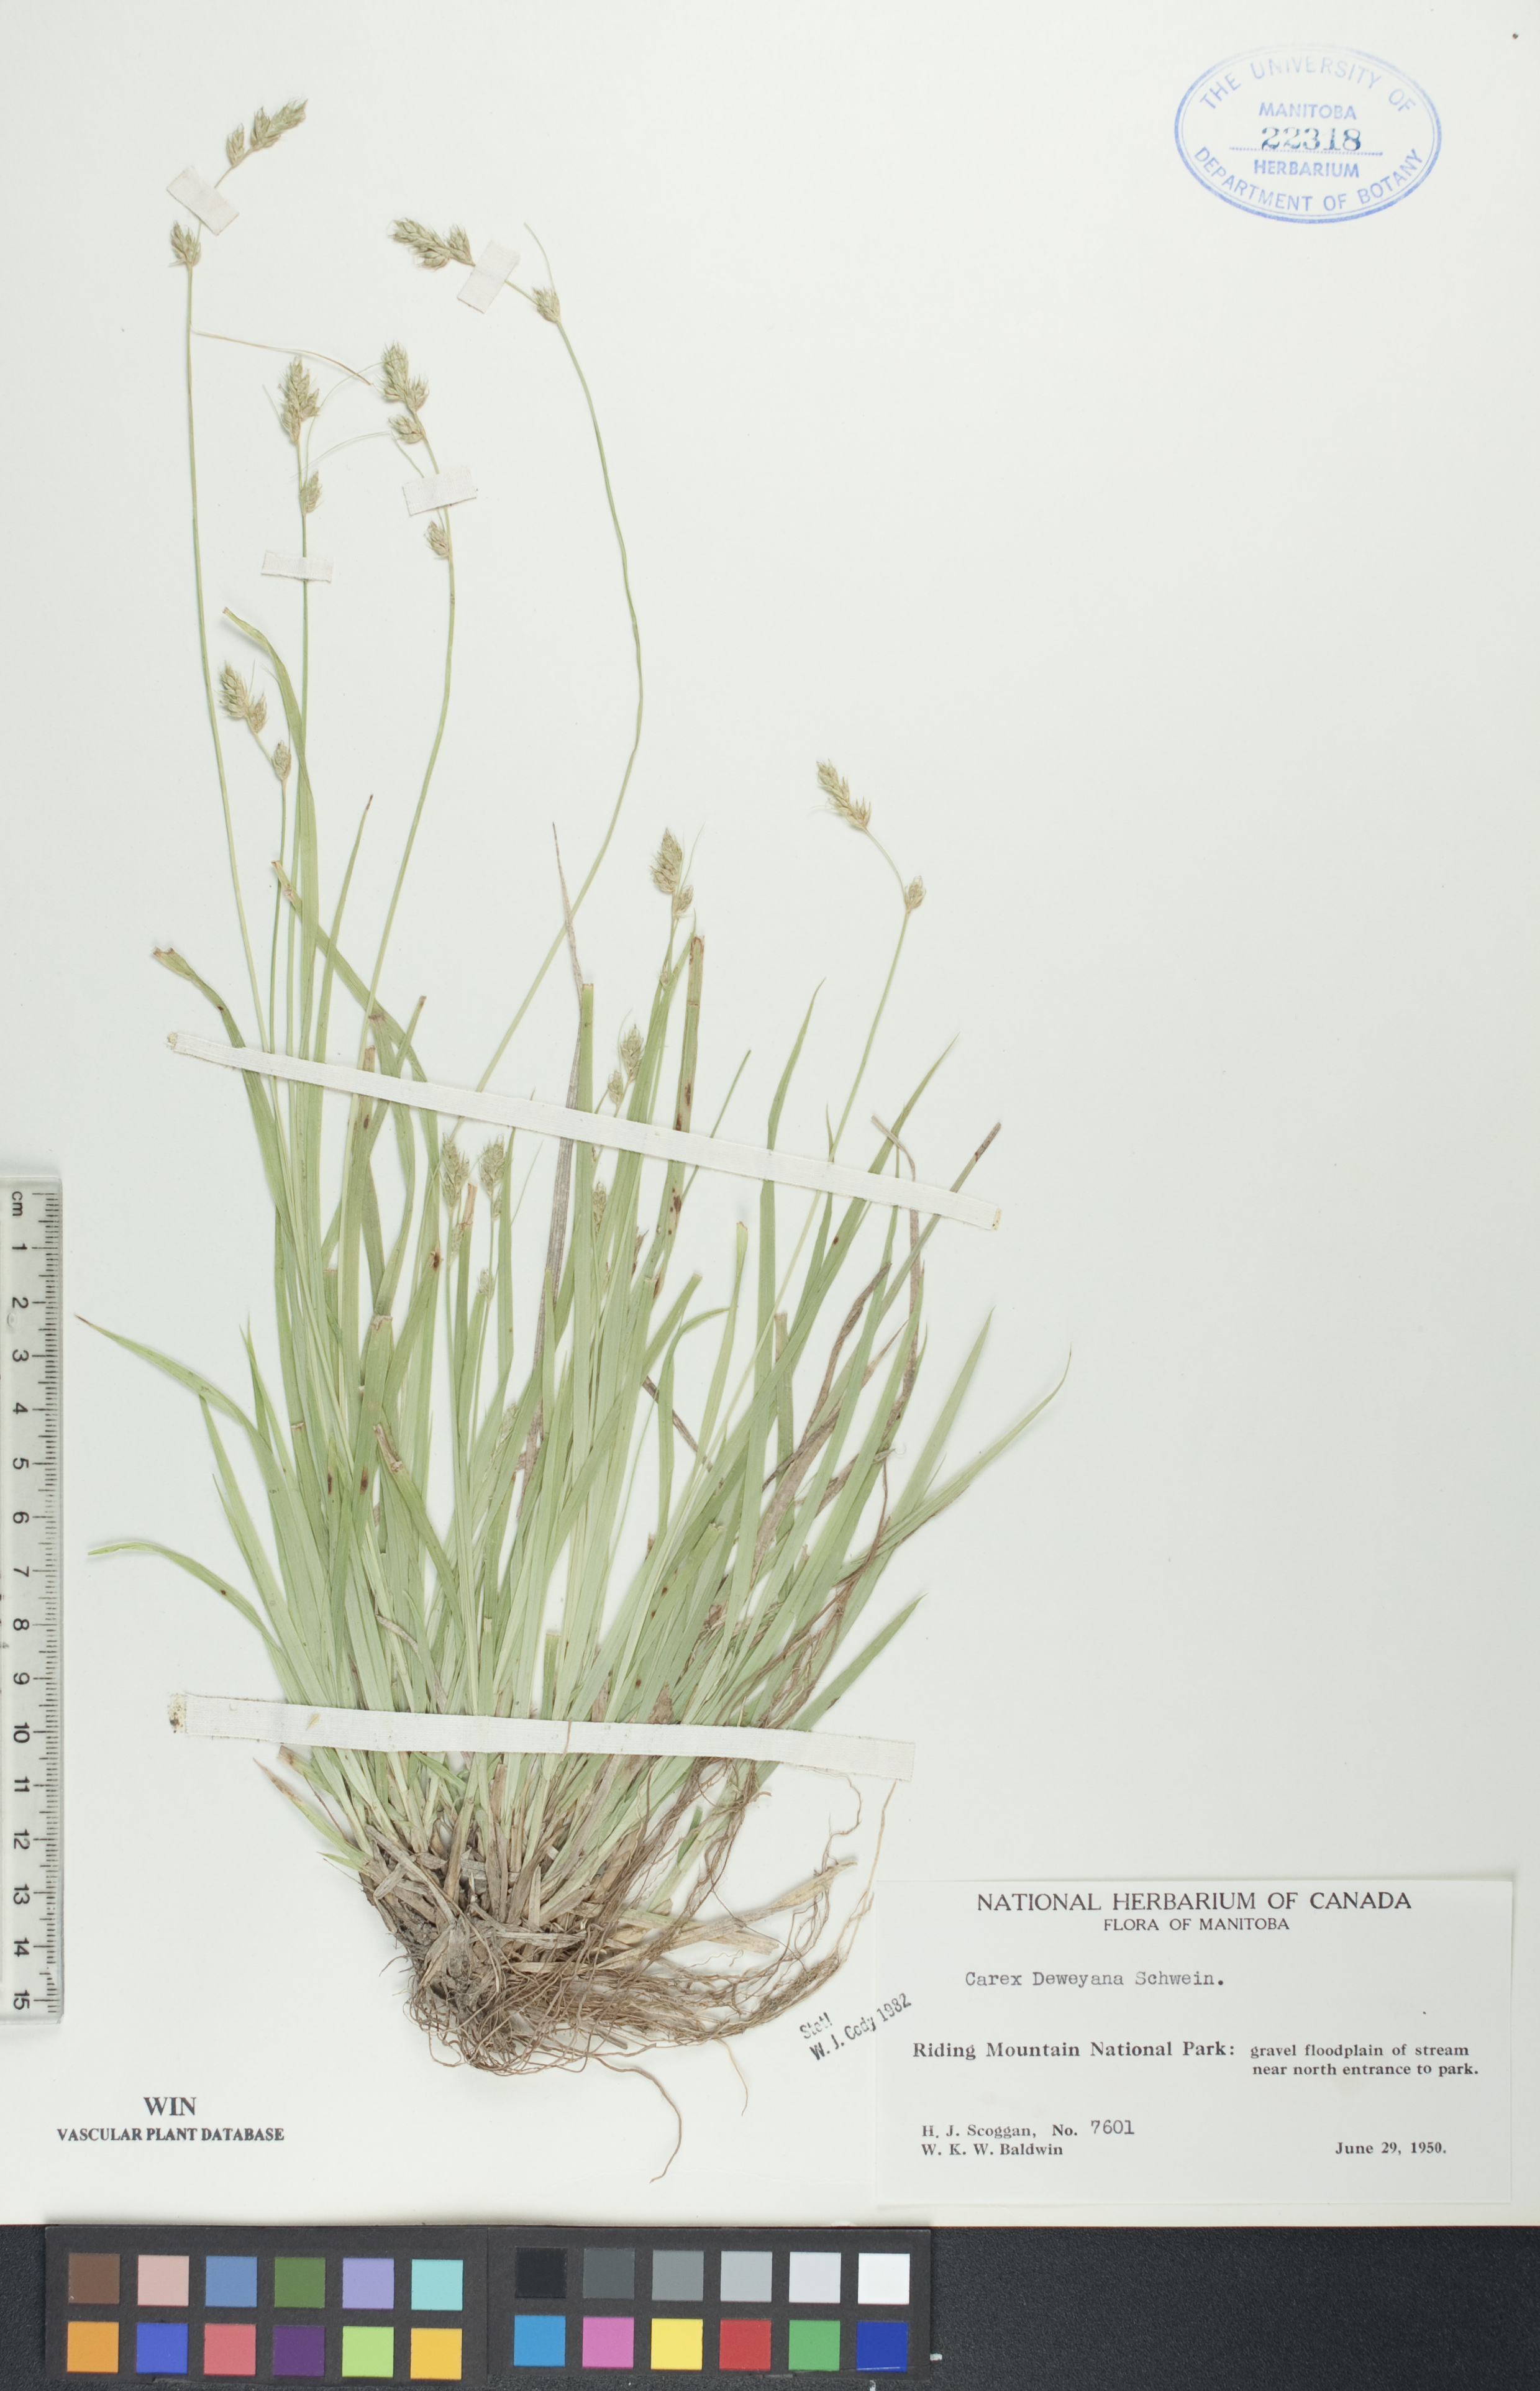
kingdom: Plantae
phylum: Tracheophyta
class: Liliopsida
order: Poales
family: Cyperaceae
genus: Carex
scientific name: Carex deweyana
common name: Dewey's sedge
